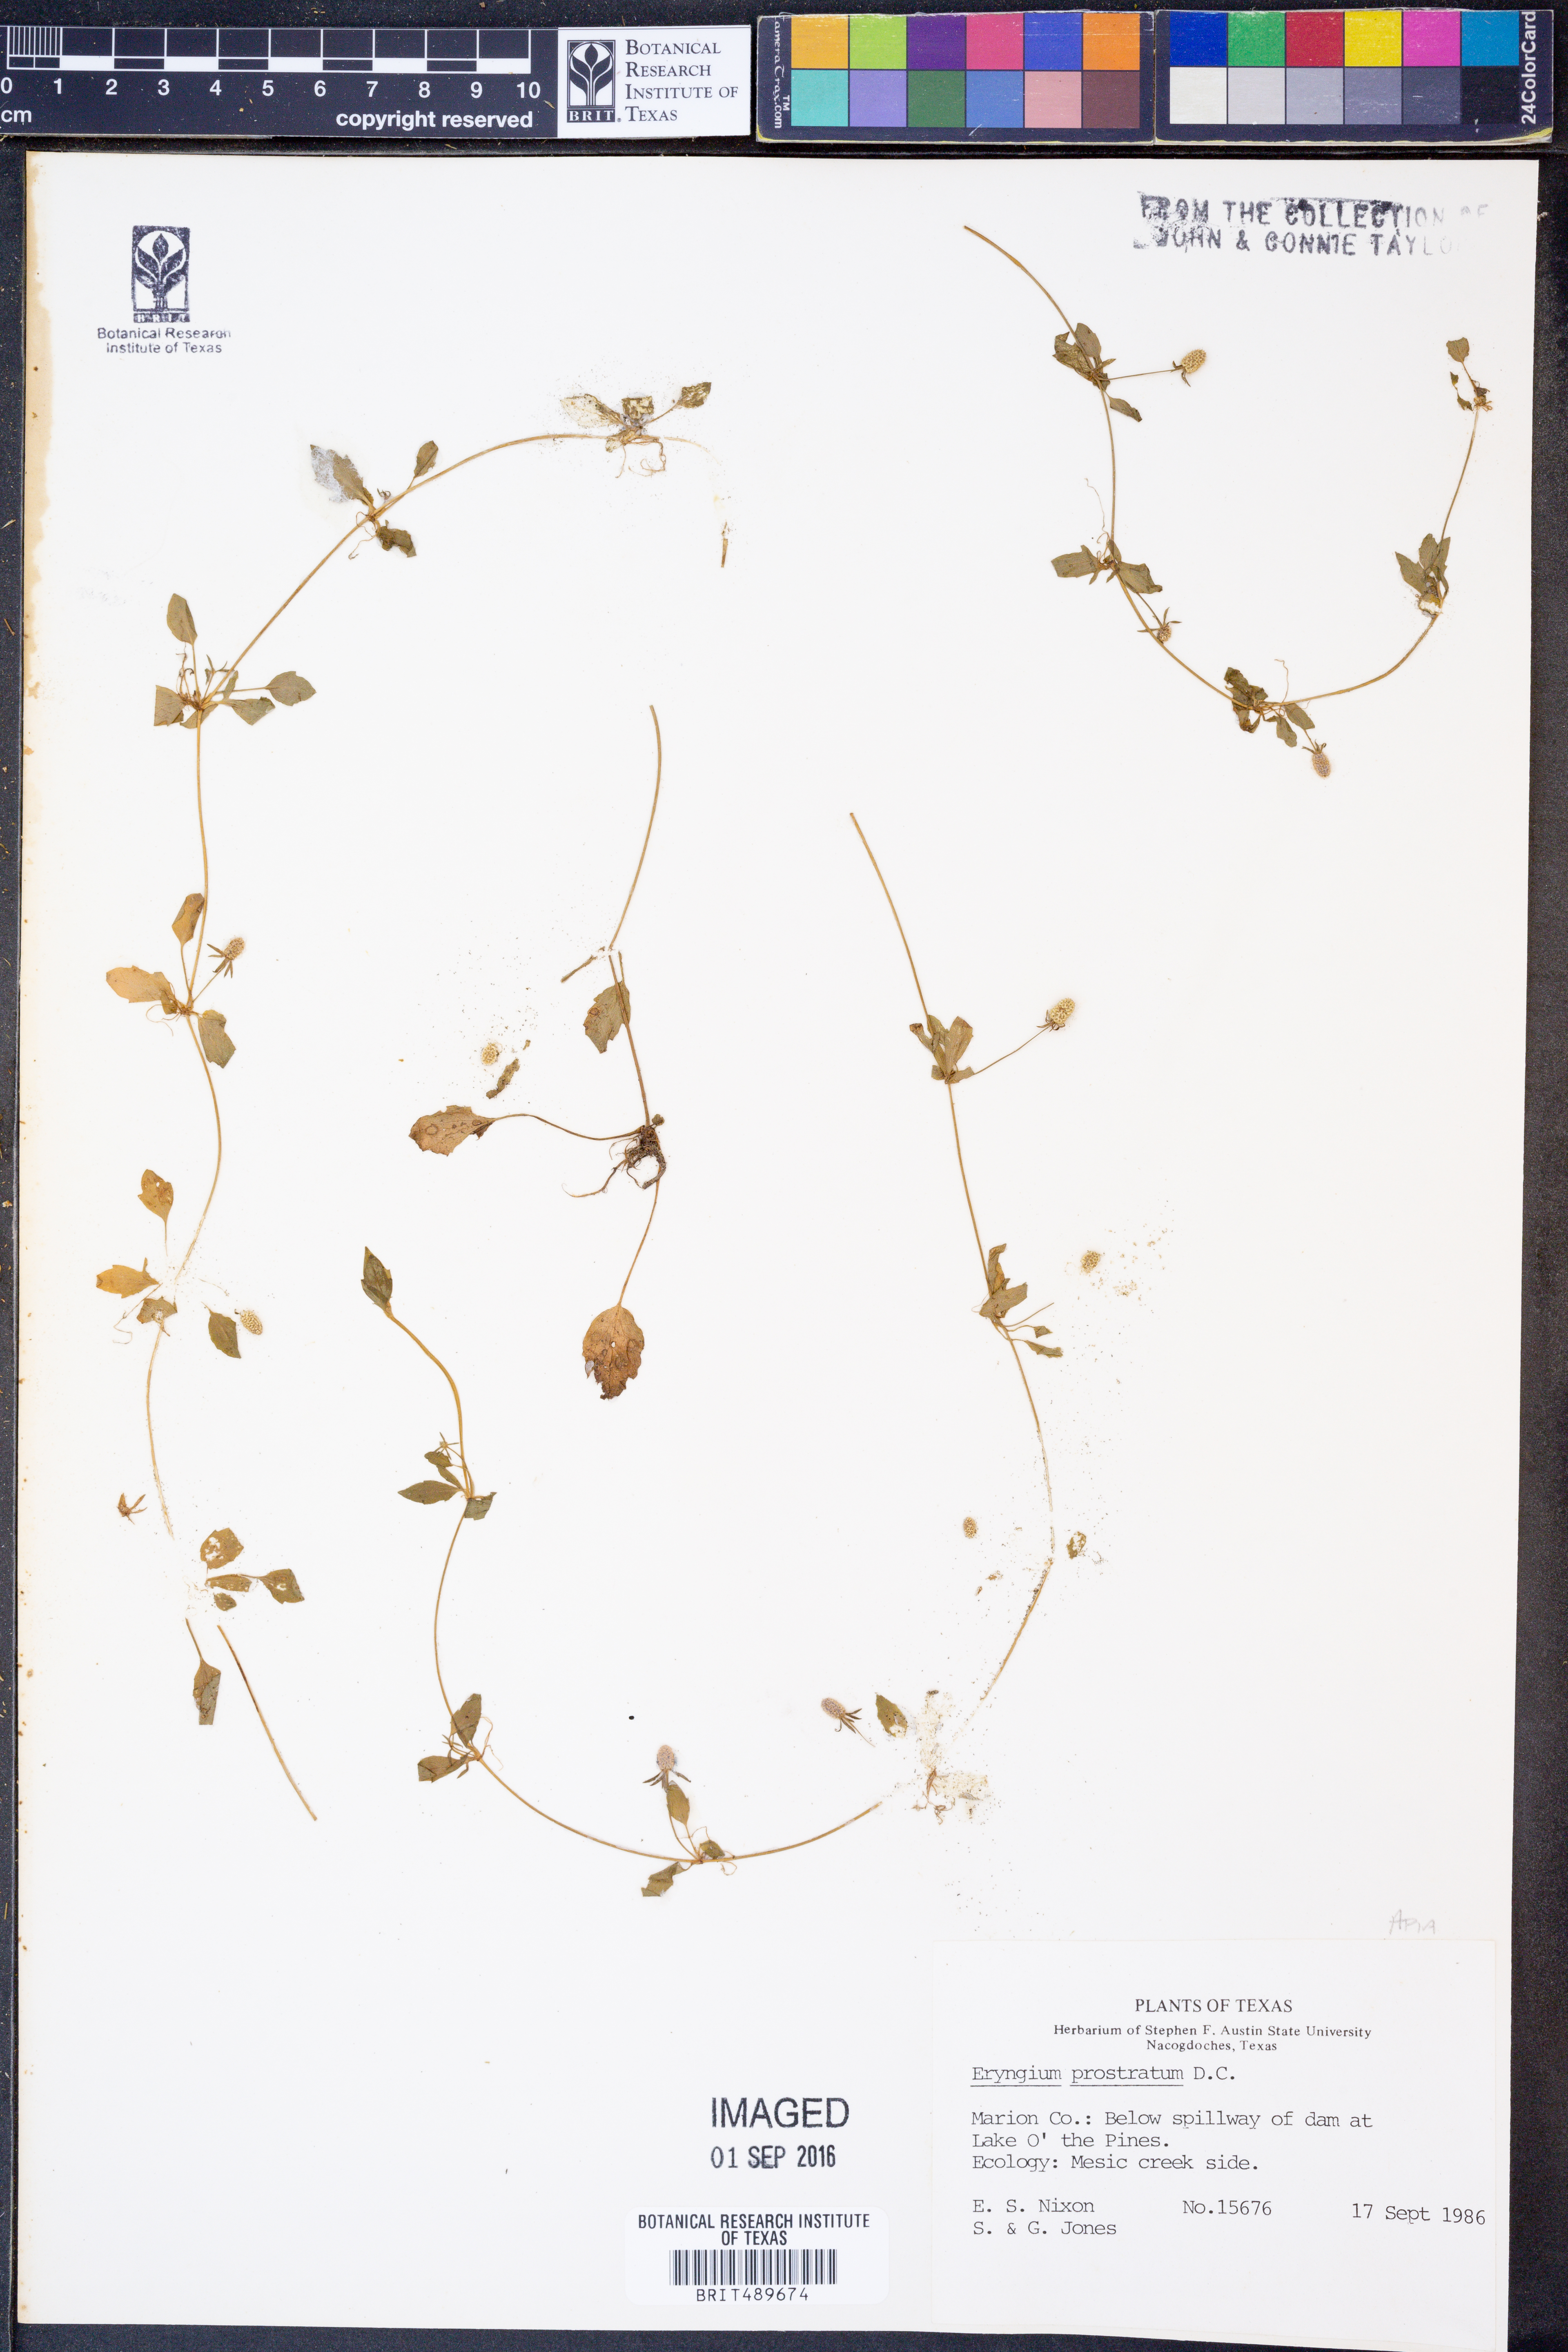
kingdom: Plantae
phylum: Tracheophyta
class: Magnoliopsida
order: Apiales
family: Apiaceae
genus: Eryngium
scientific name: Eryngium prostratum
